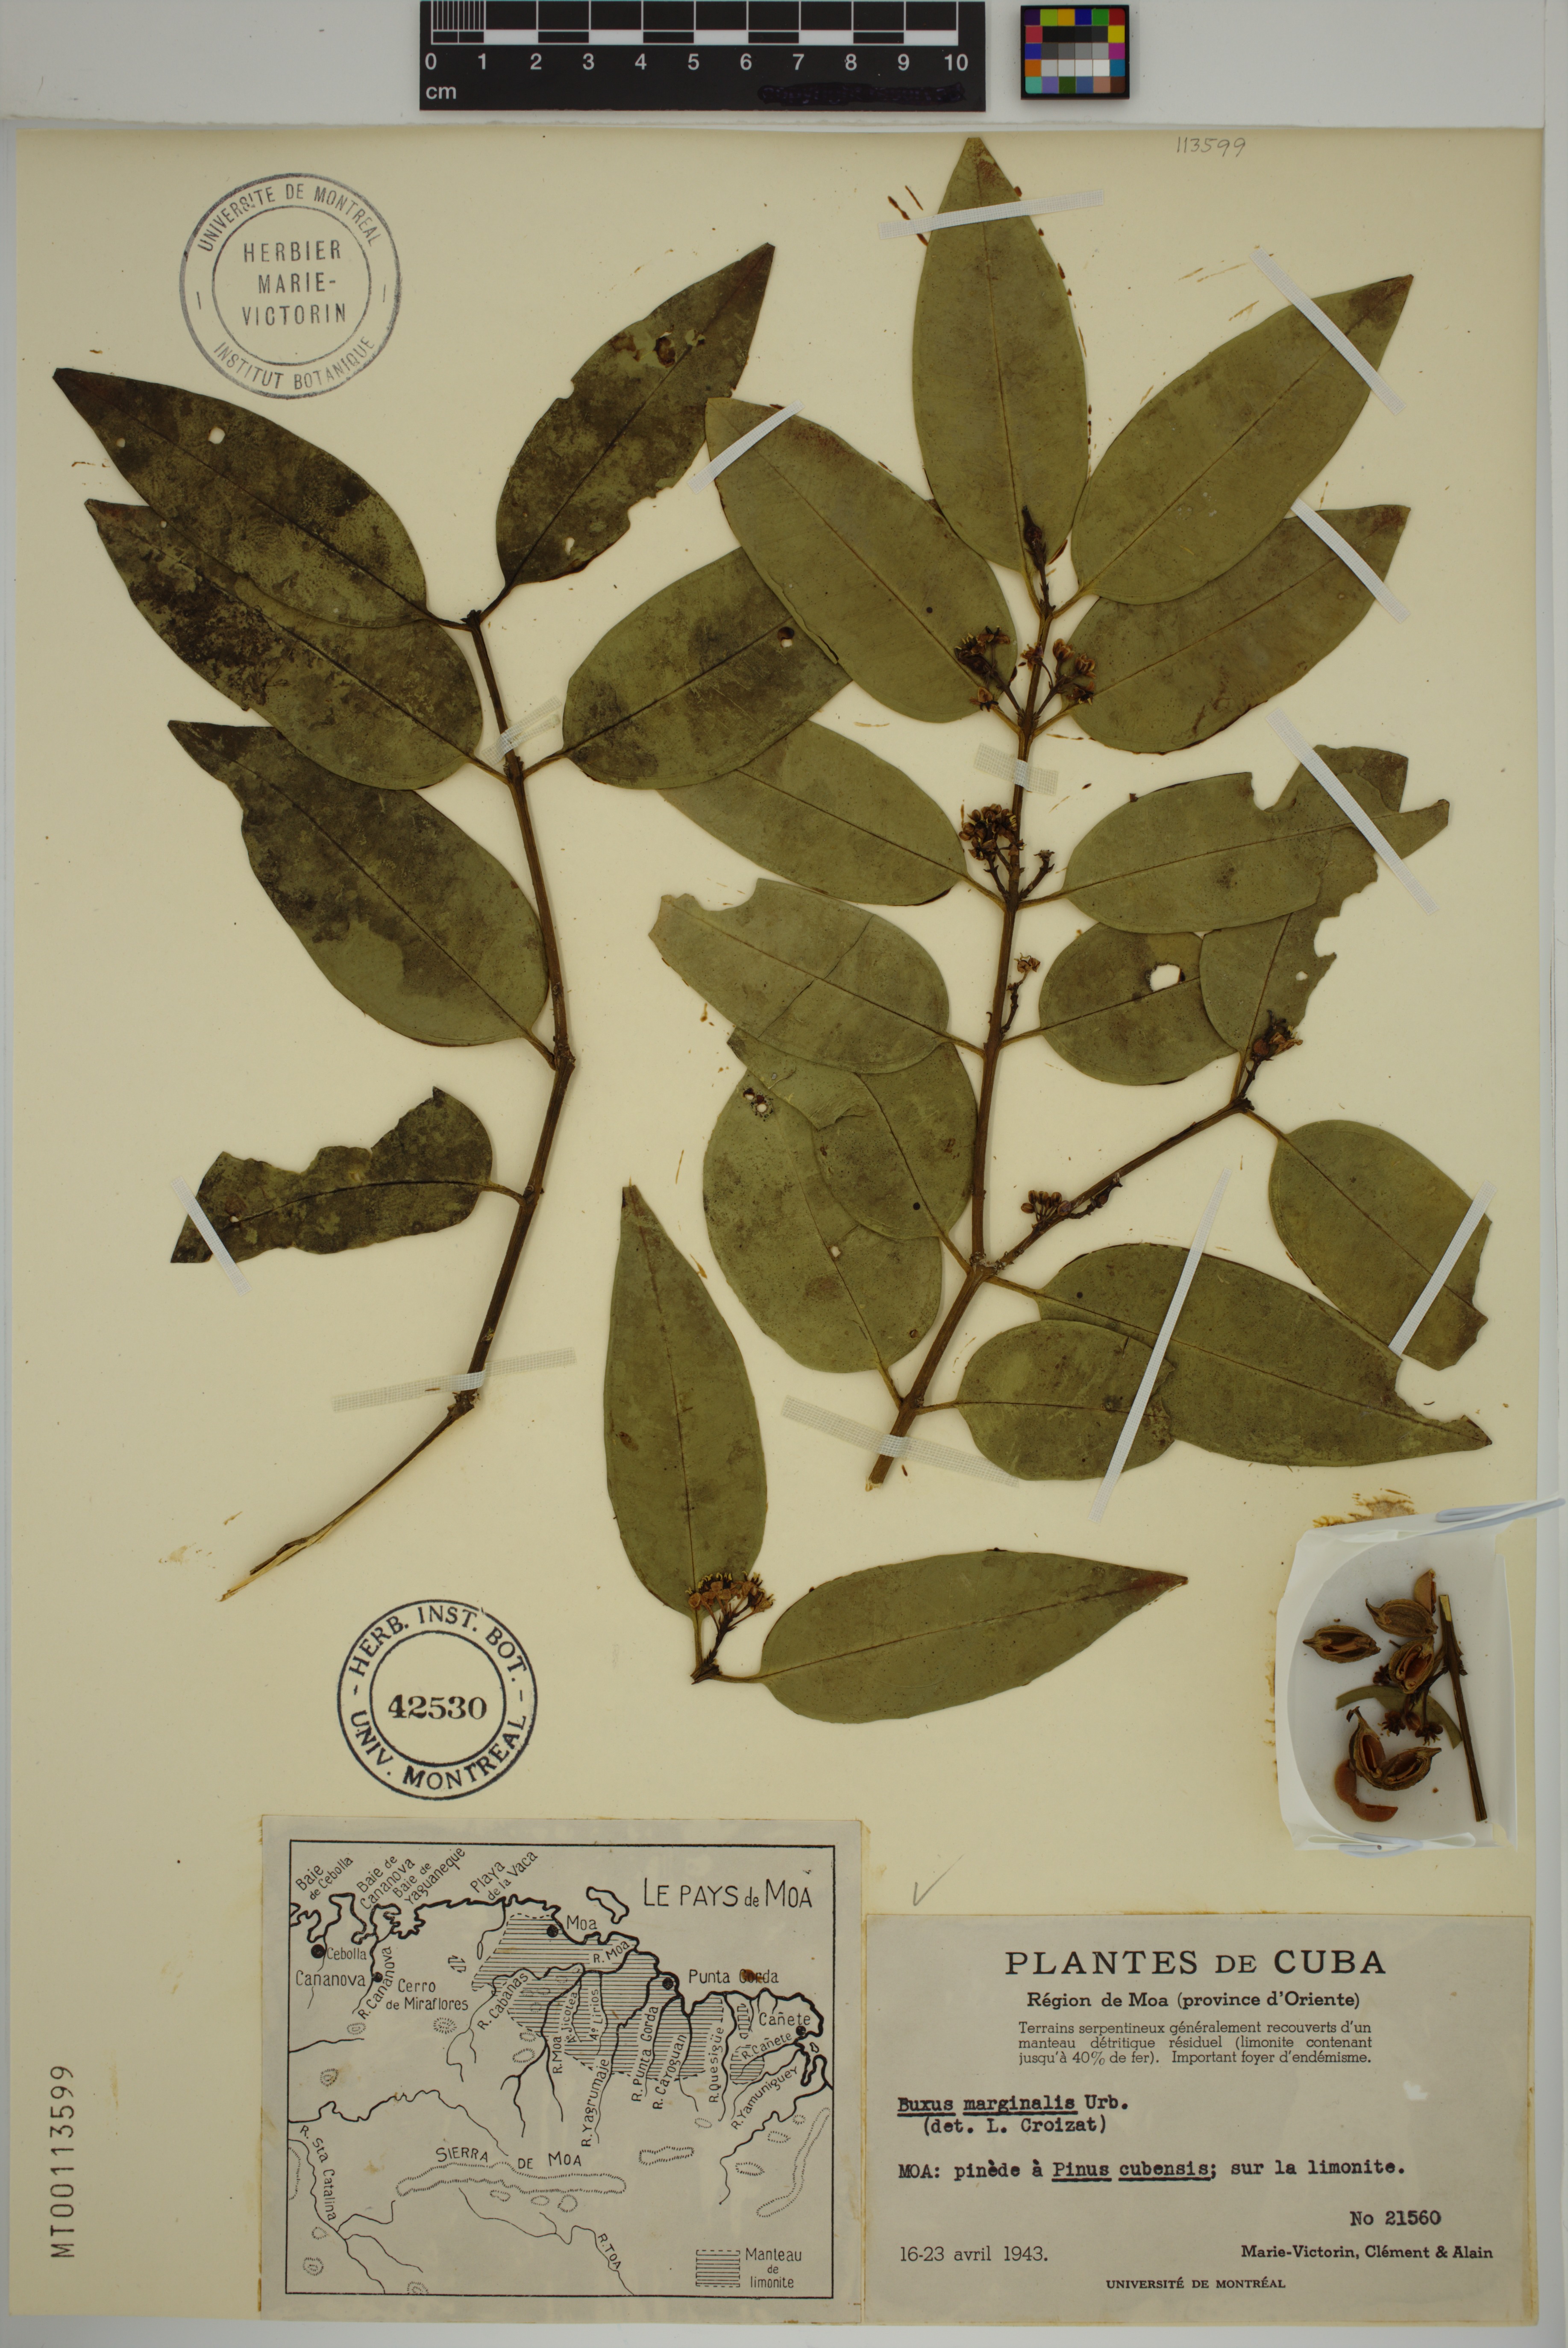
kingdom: Plantae
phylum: Tracheophyta
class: Magnoliopsida
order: Buxales
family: Buxaceae
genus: Buxus
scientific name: Buxus marginalis
